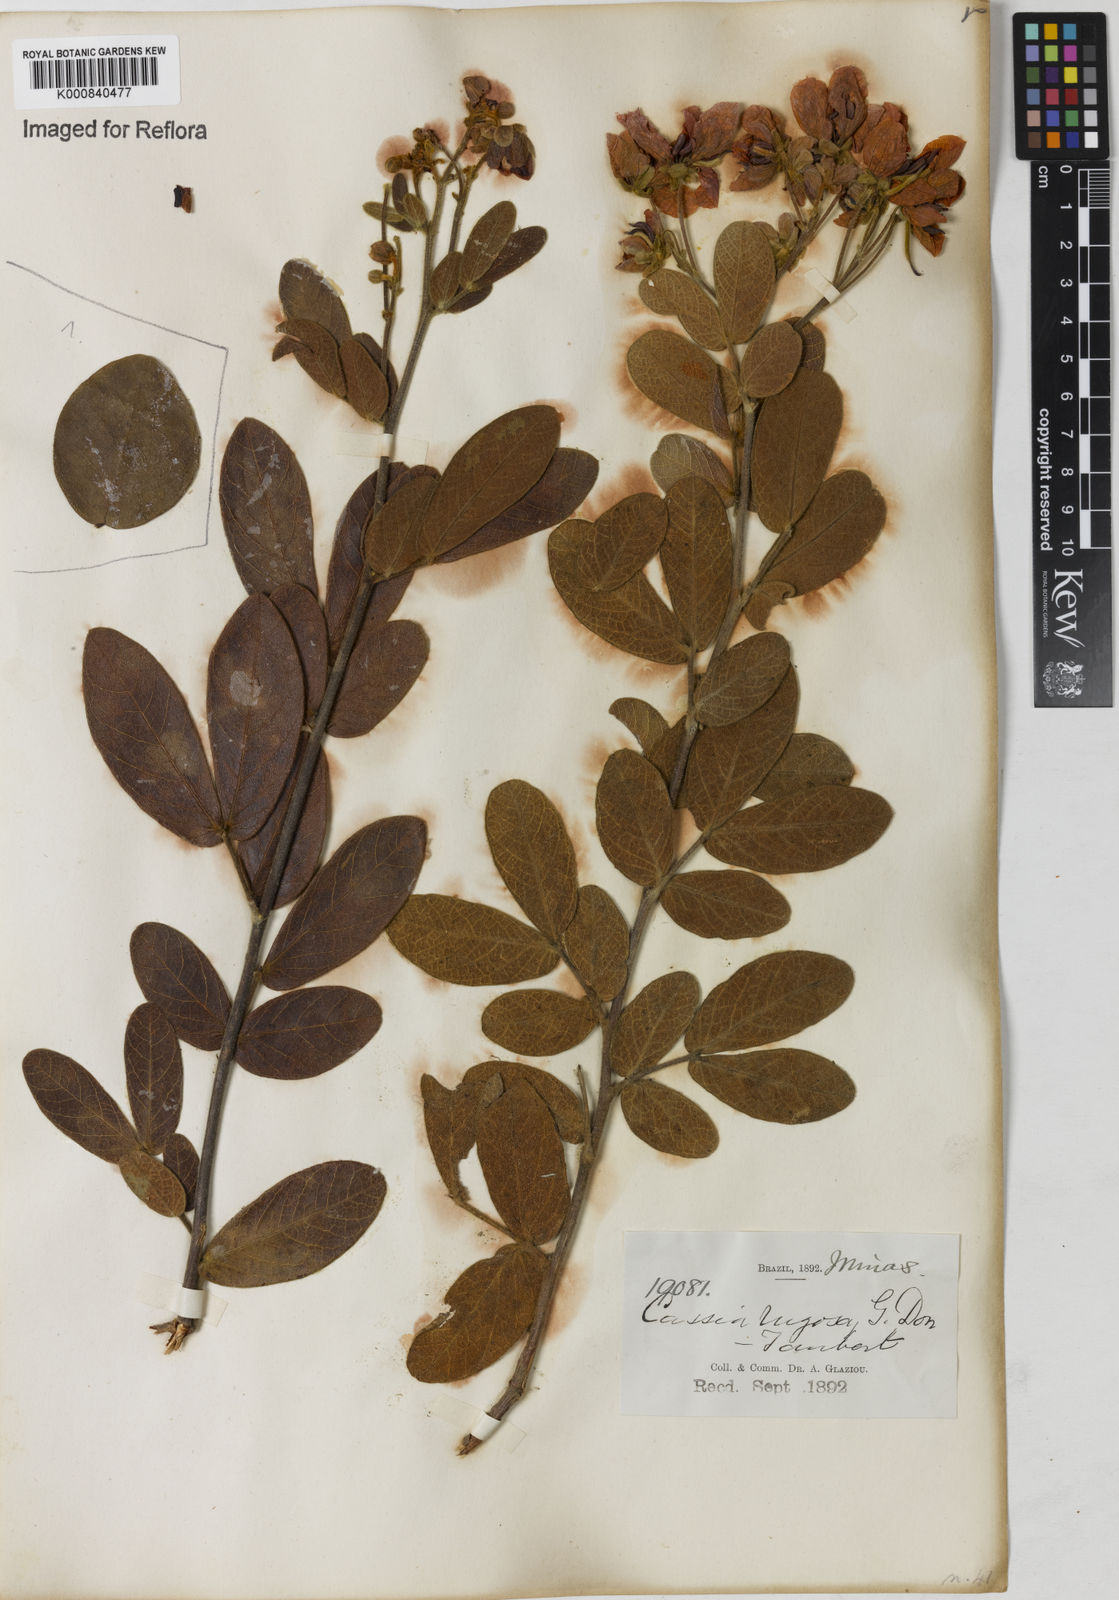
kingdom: Plantae
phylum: Tracheophyta
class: Magnoliopsida
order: Fabales
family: Fabaceae
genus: Senna
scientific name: Senna rugosa
